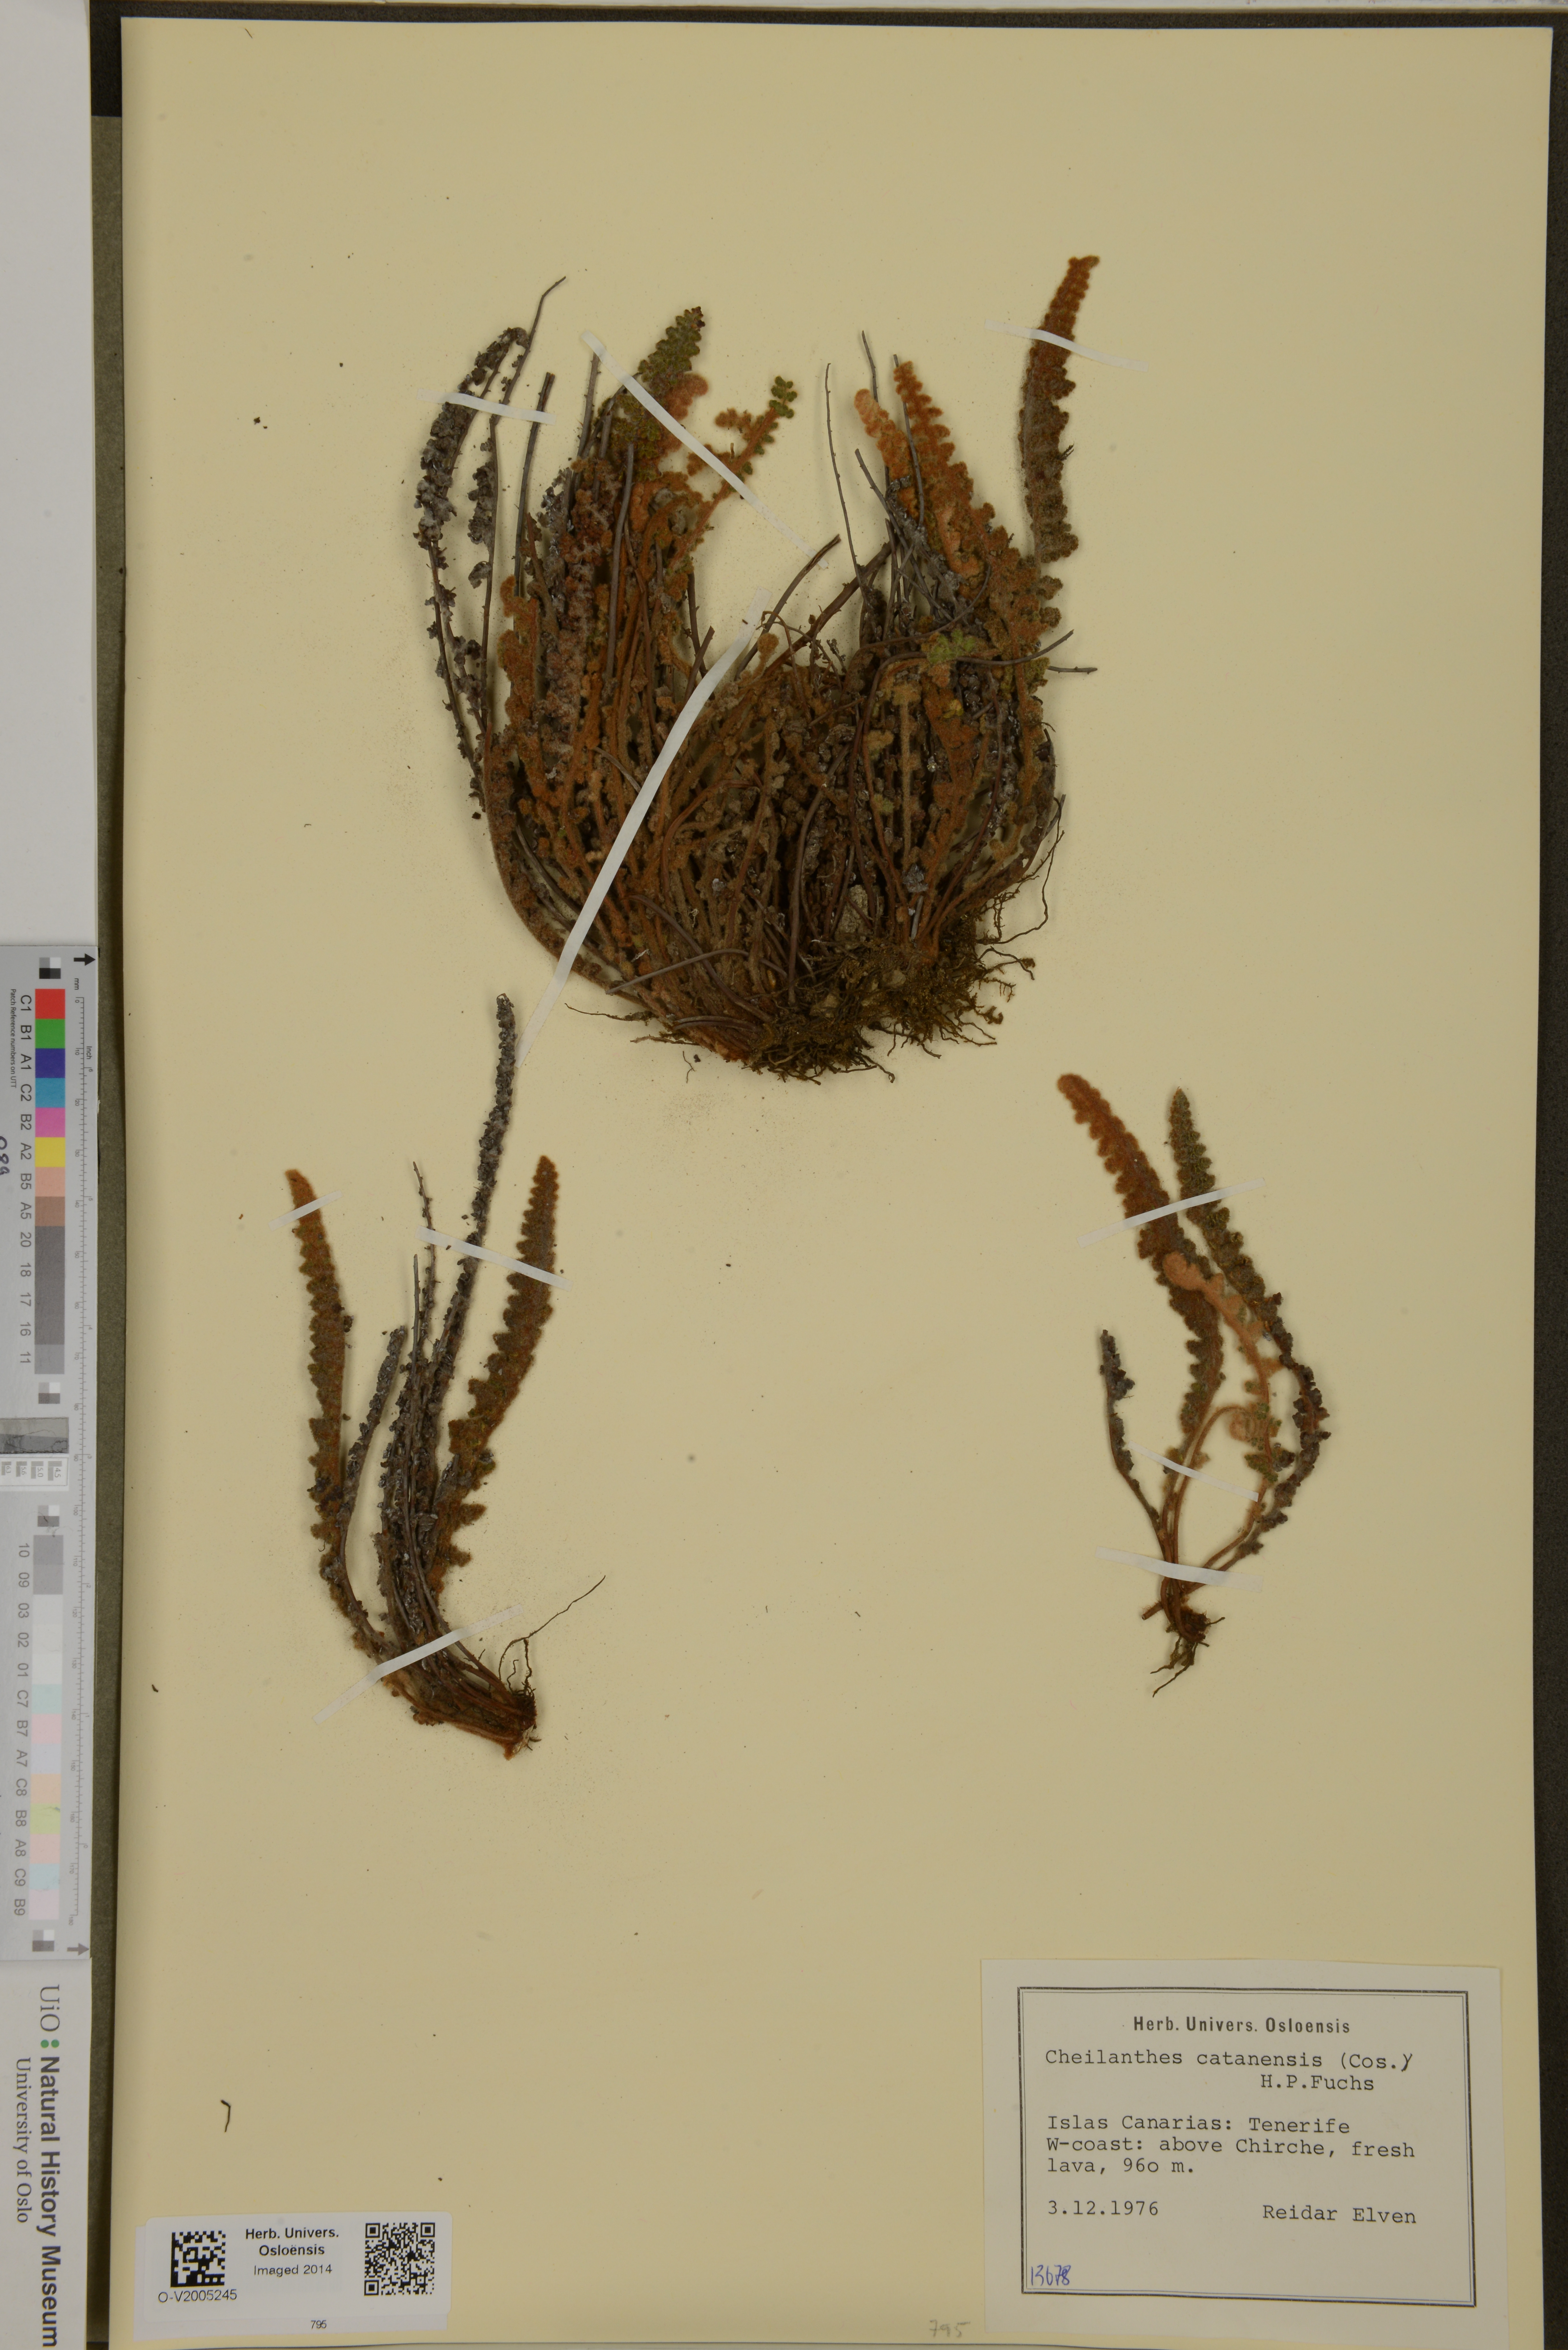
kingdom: Plantae
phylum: Tracheophyta
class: Polypodiopsida
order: Polypodiales
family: Pteridaceae
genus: Cosentinia
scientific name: Cosentinia vellea
